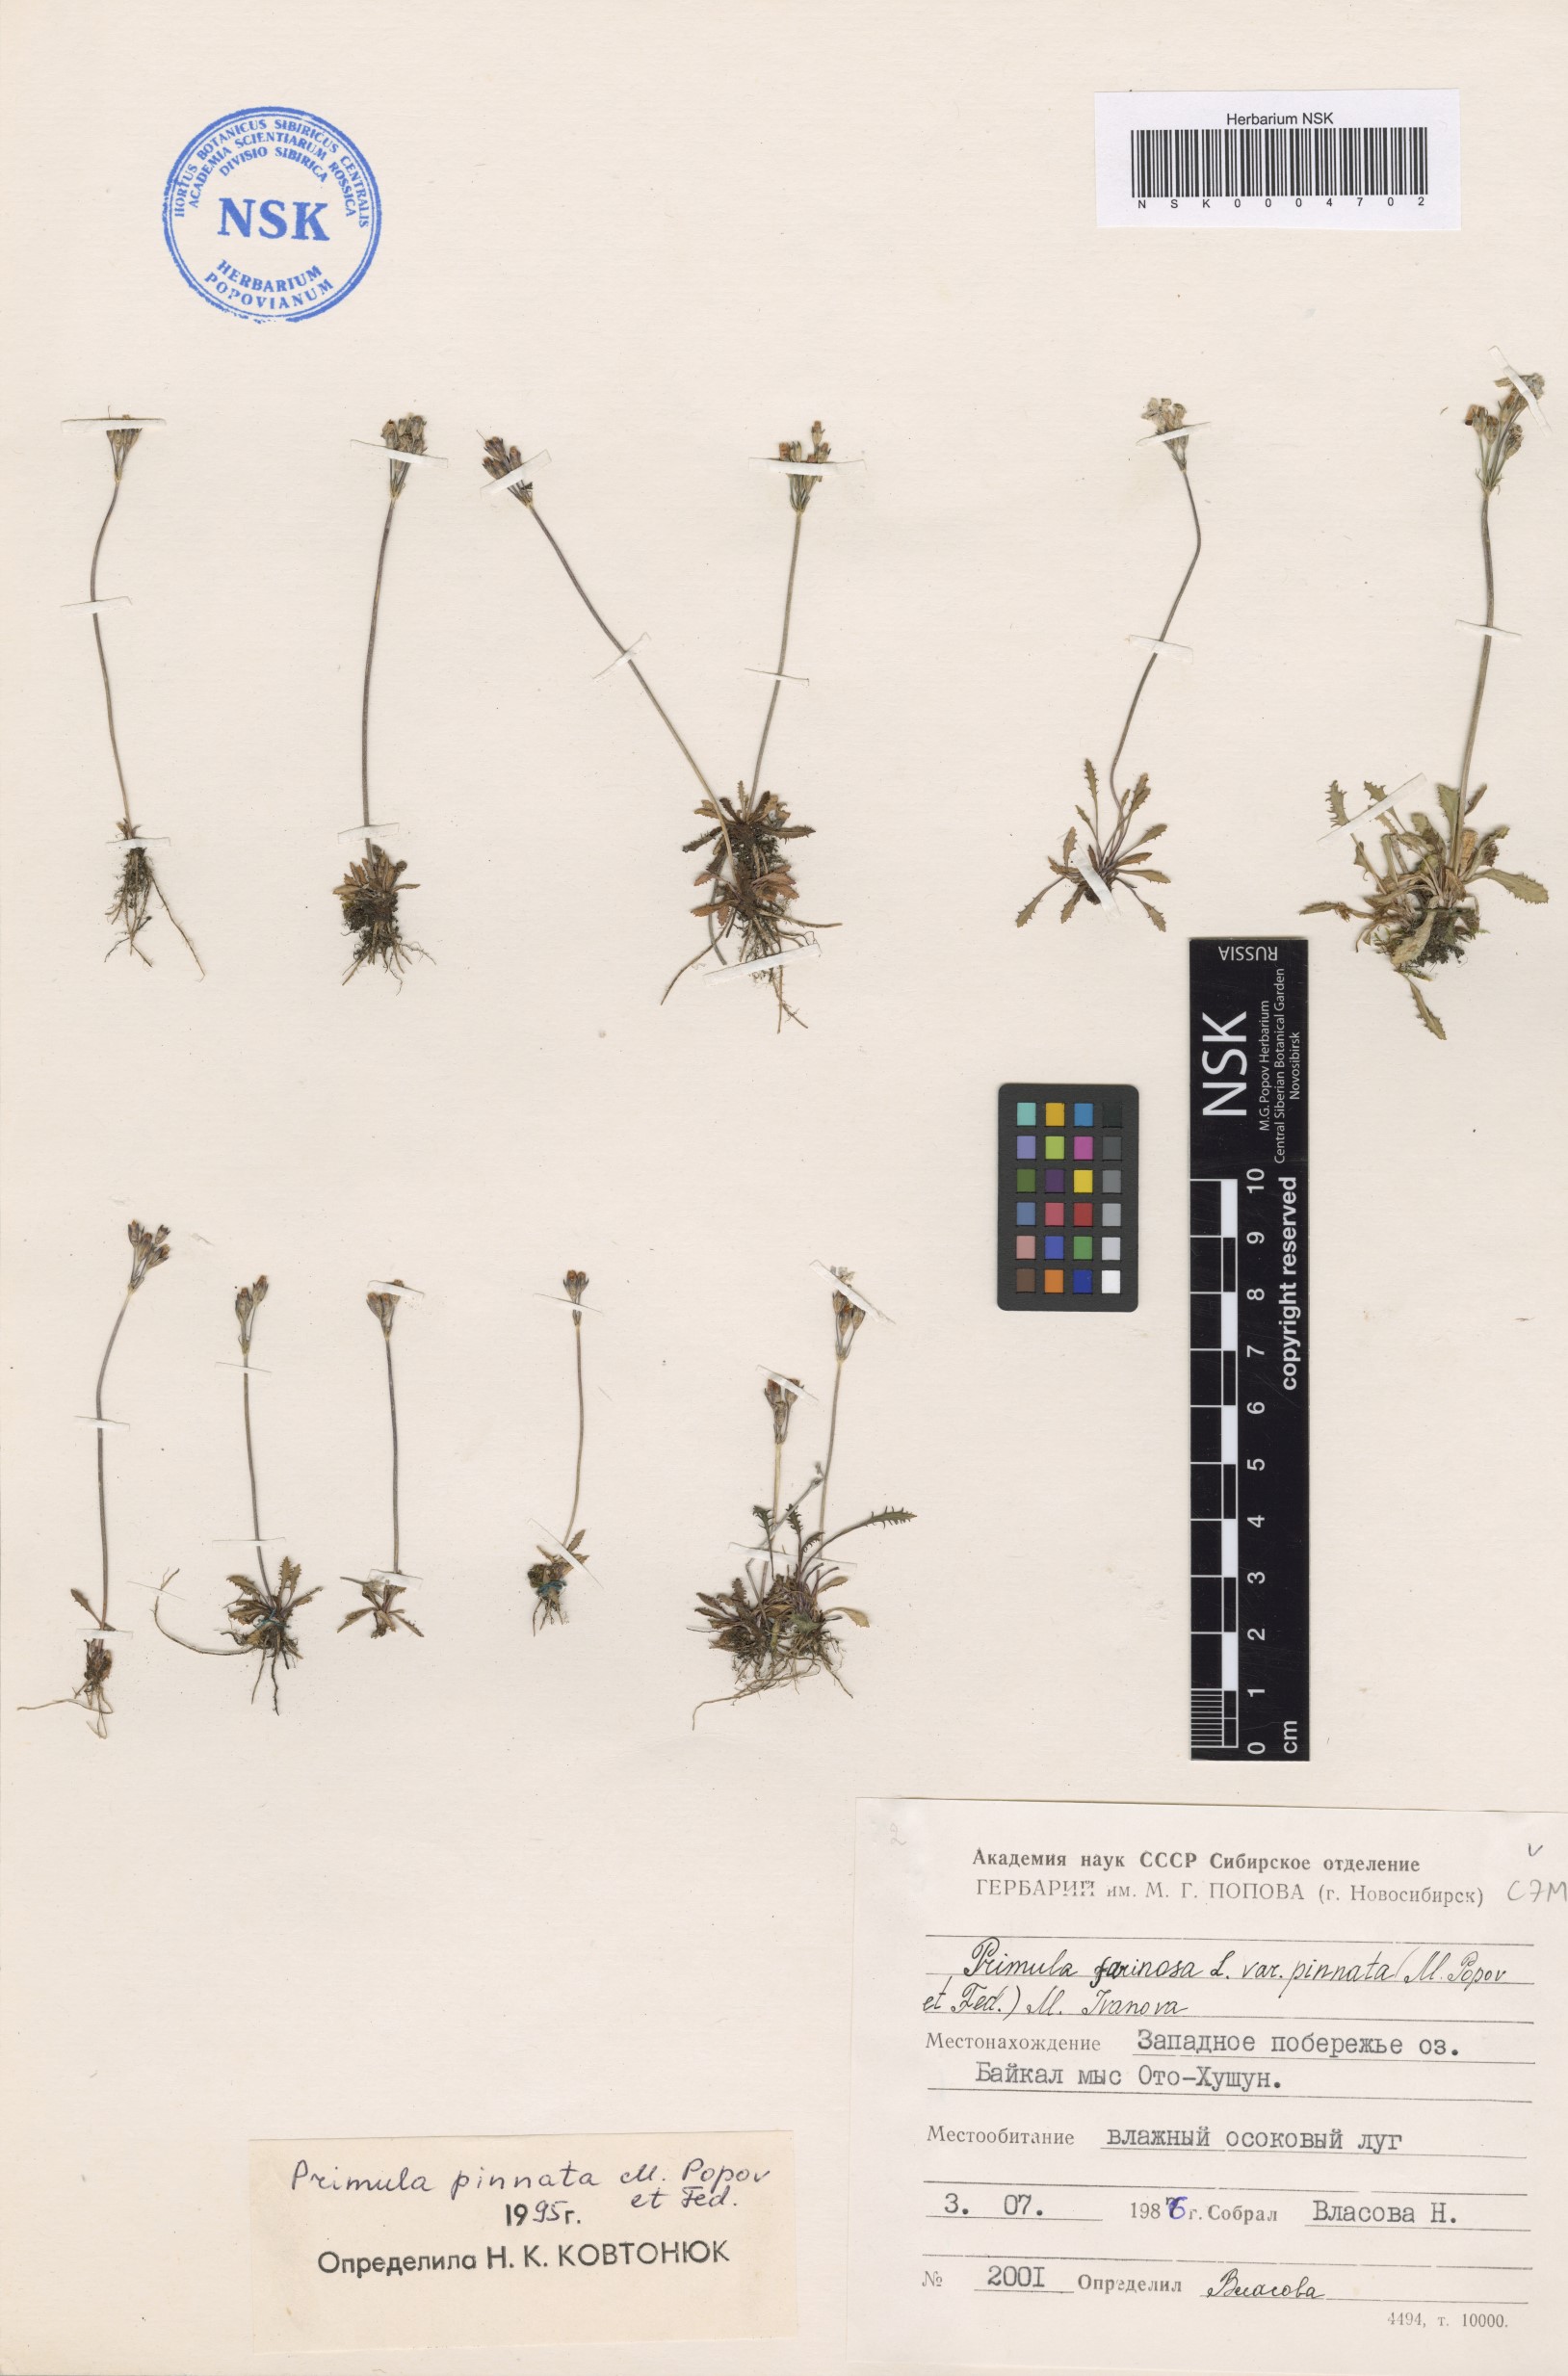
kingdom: Plantae
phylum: Tracheophyta
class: Magnoliopsida
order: Ericales
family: Primulaceae
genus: Primula
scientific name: Primula pinnata
